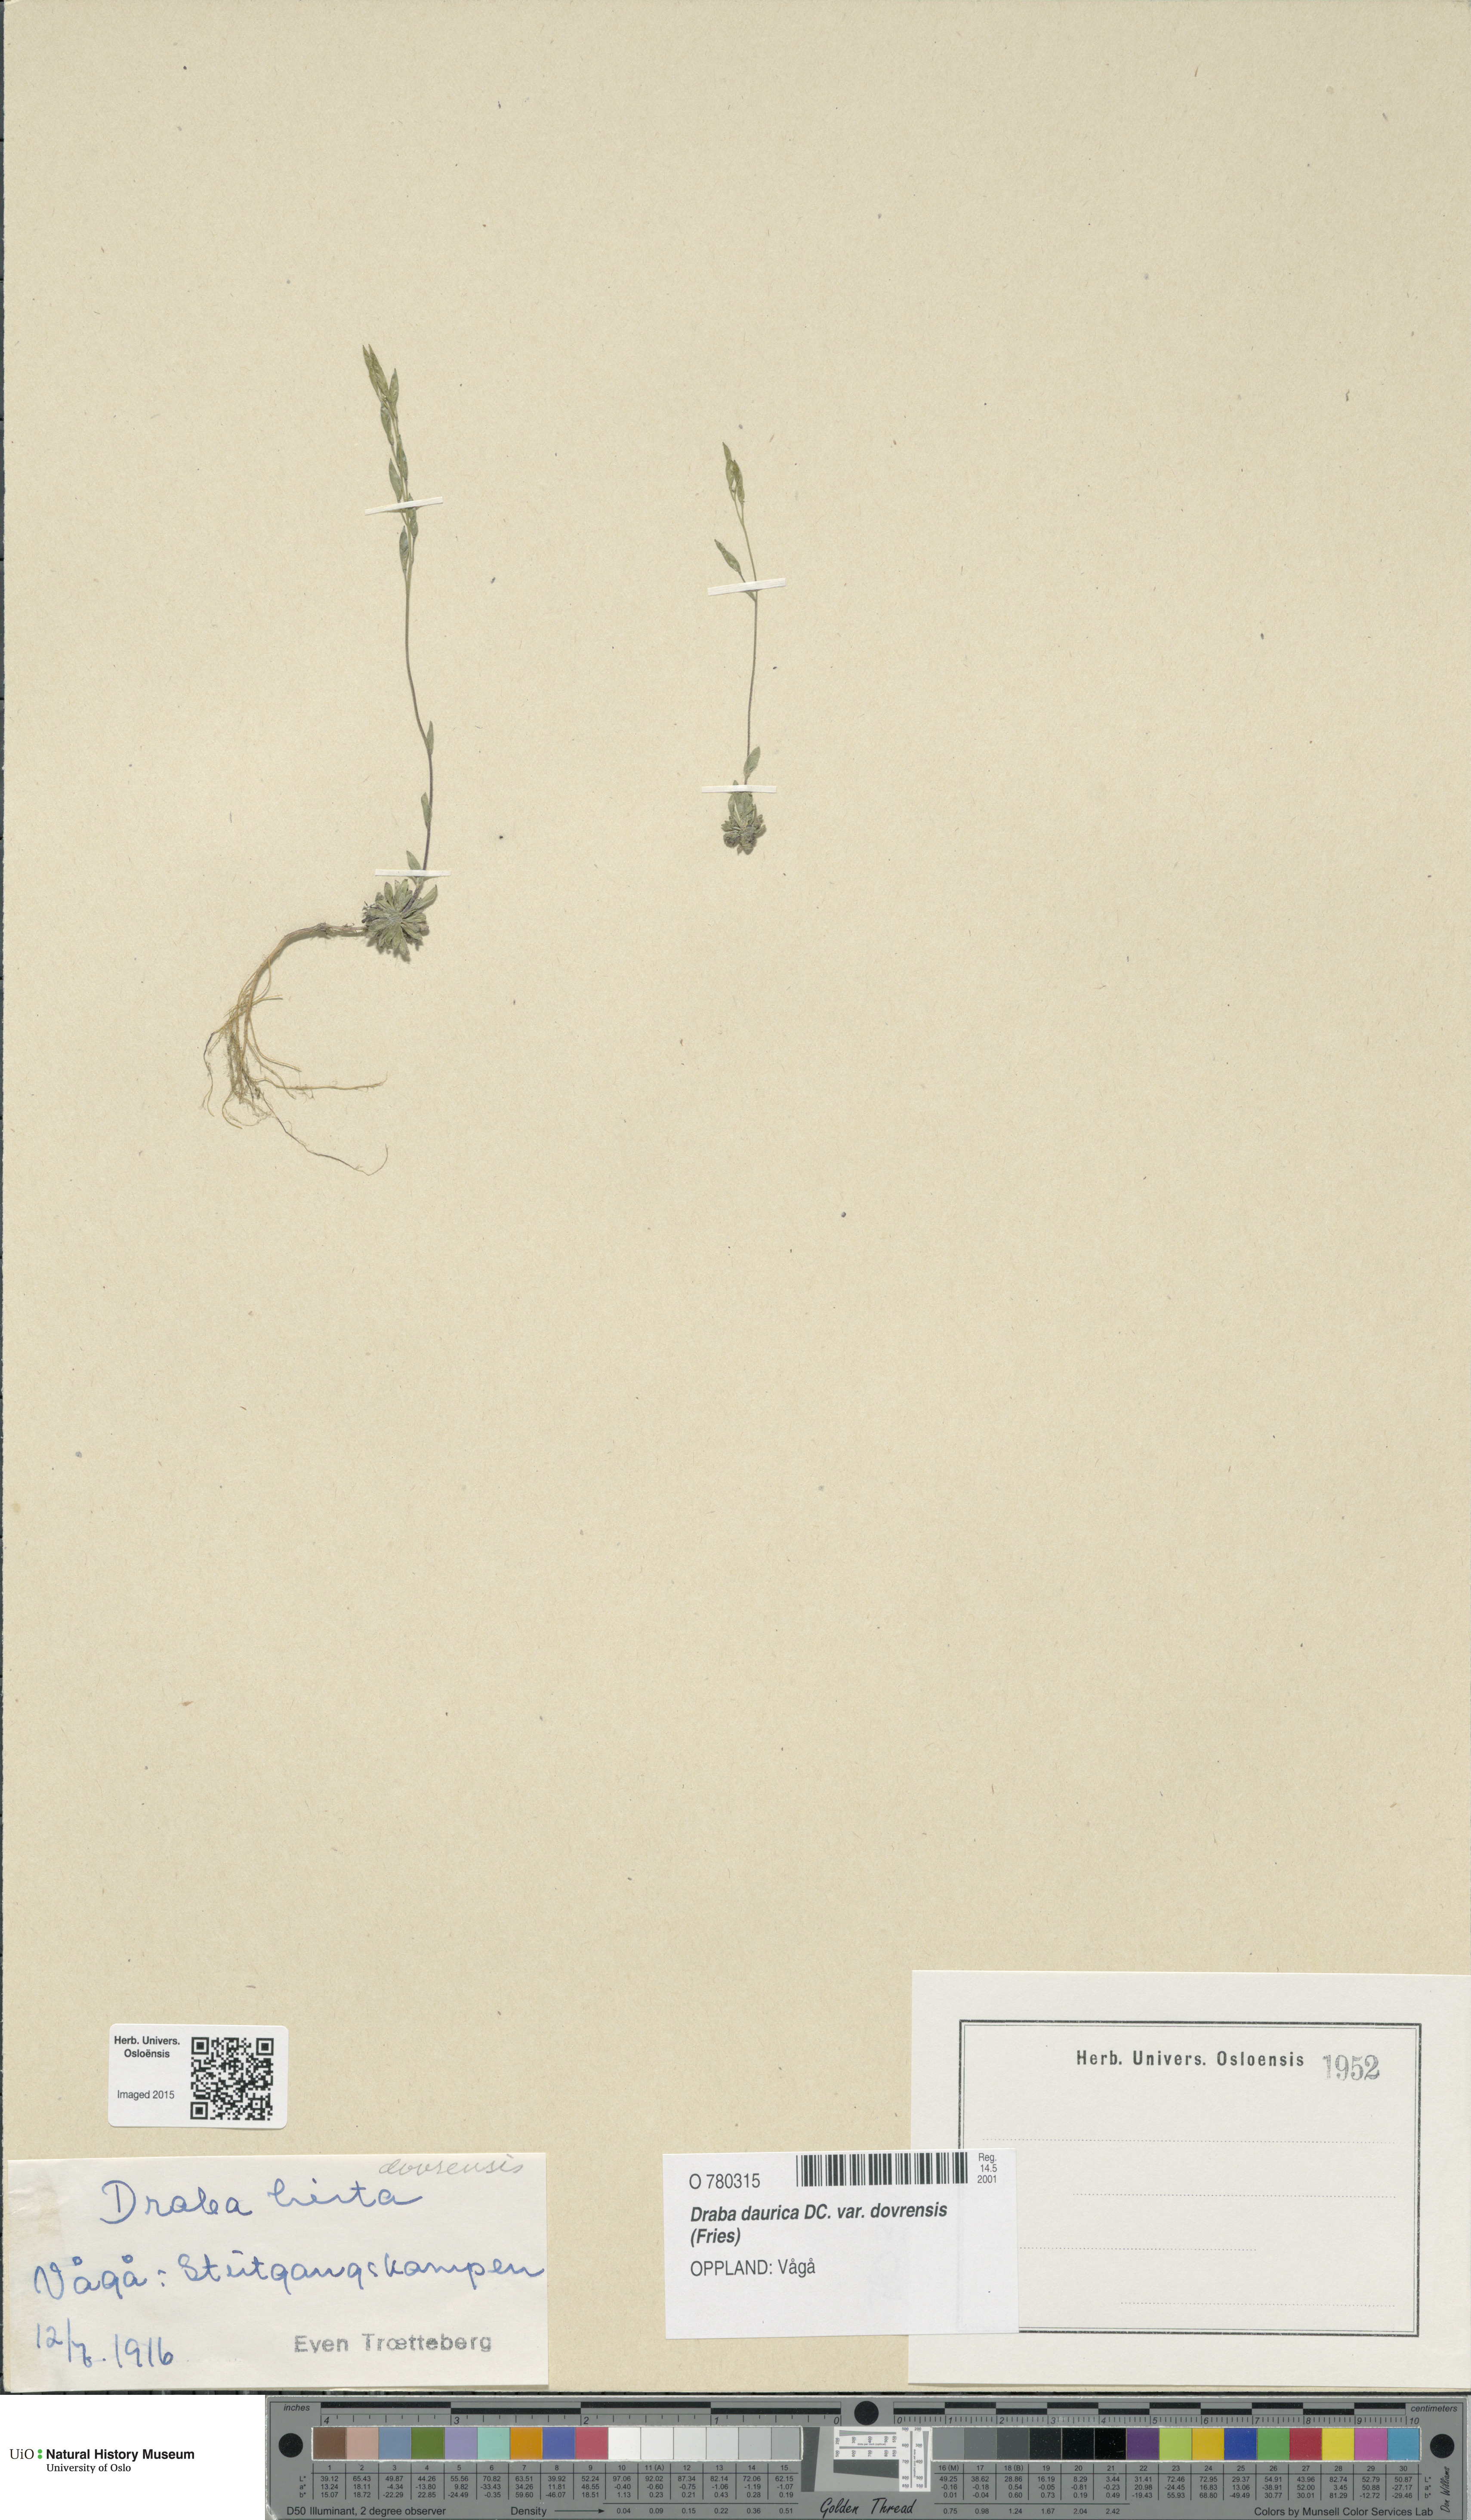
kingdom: Plantae
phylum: Tracheophyta
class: Magnoliopsida
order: Brassicales
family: Brassicaceae
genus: Draba
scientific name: Draba glabella
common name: Glaucous draba
